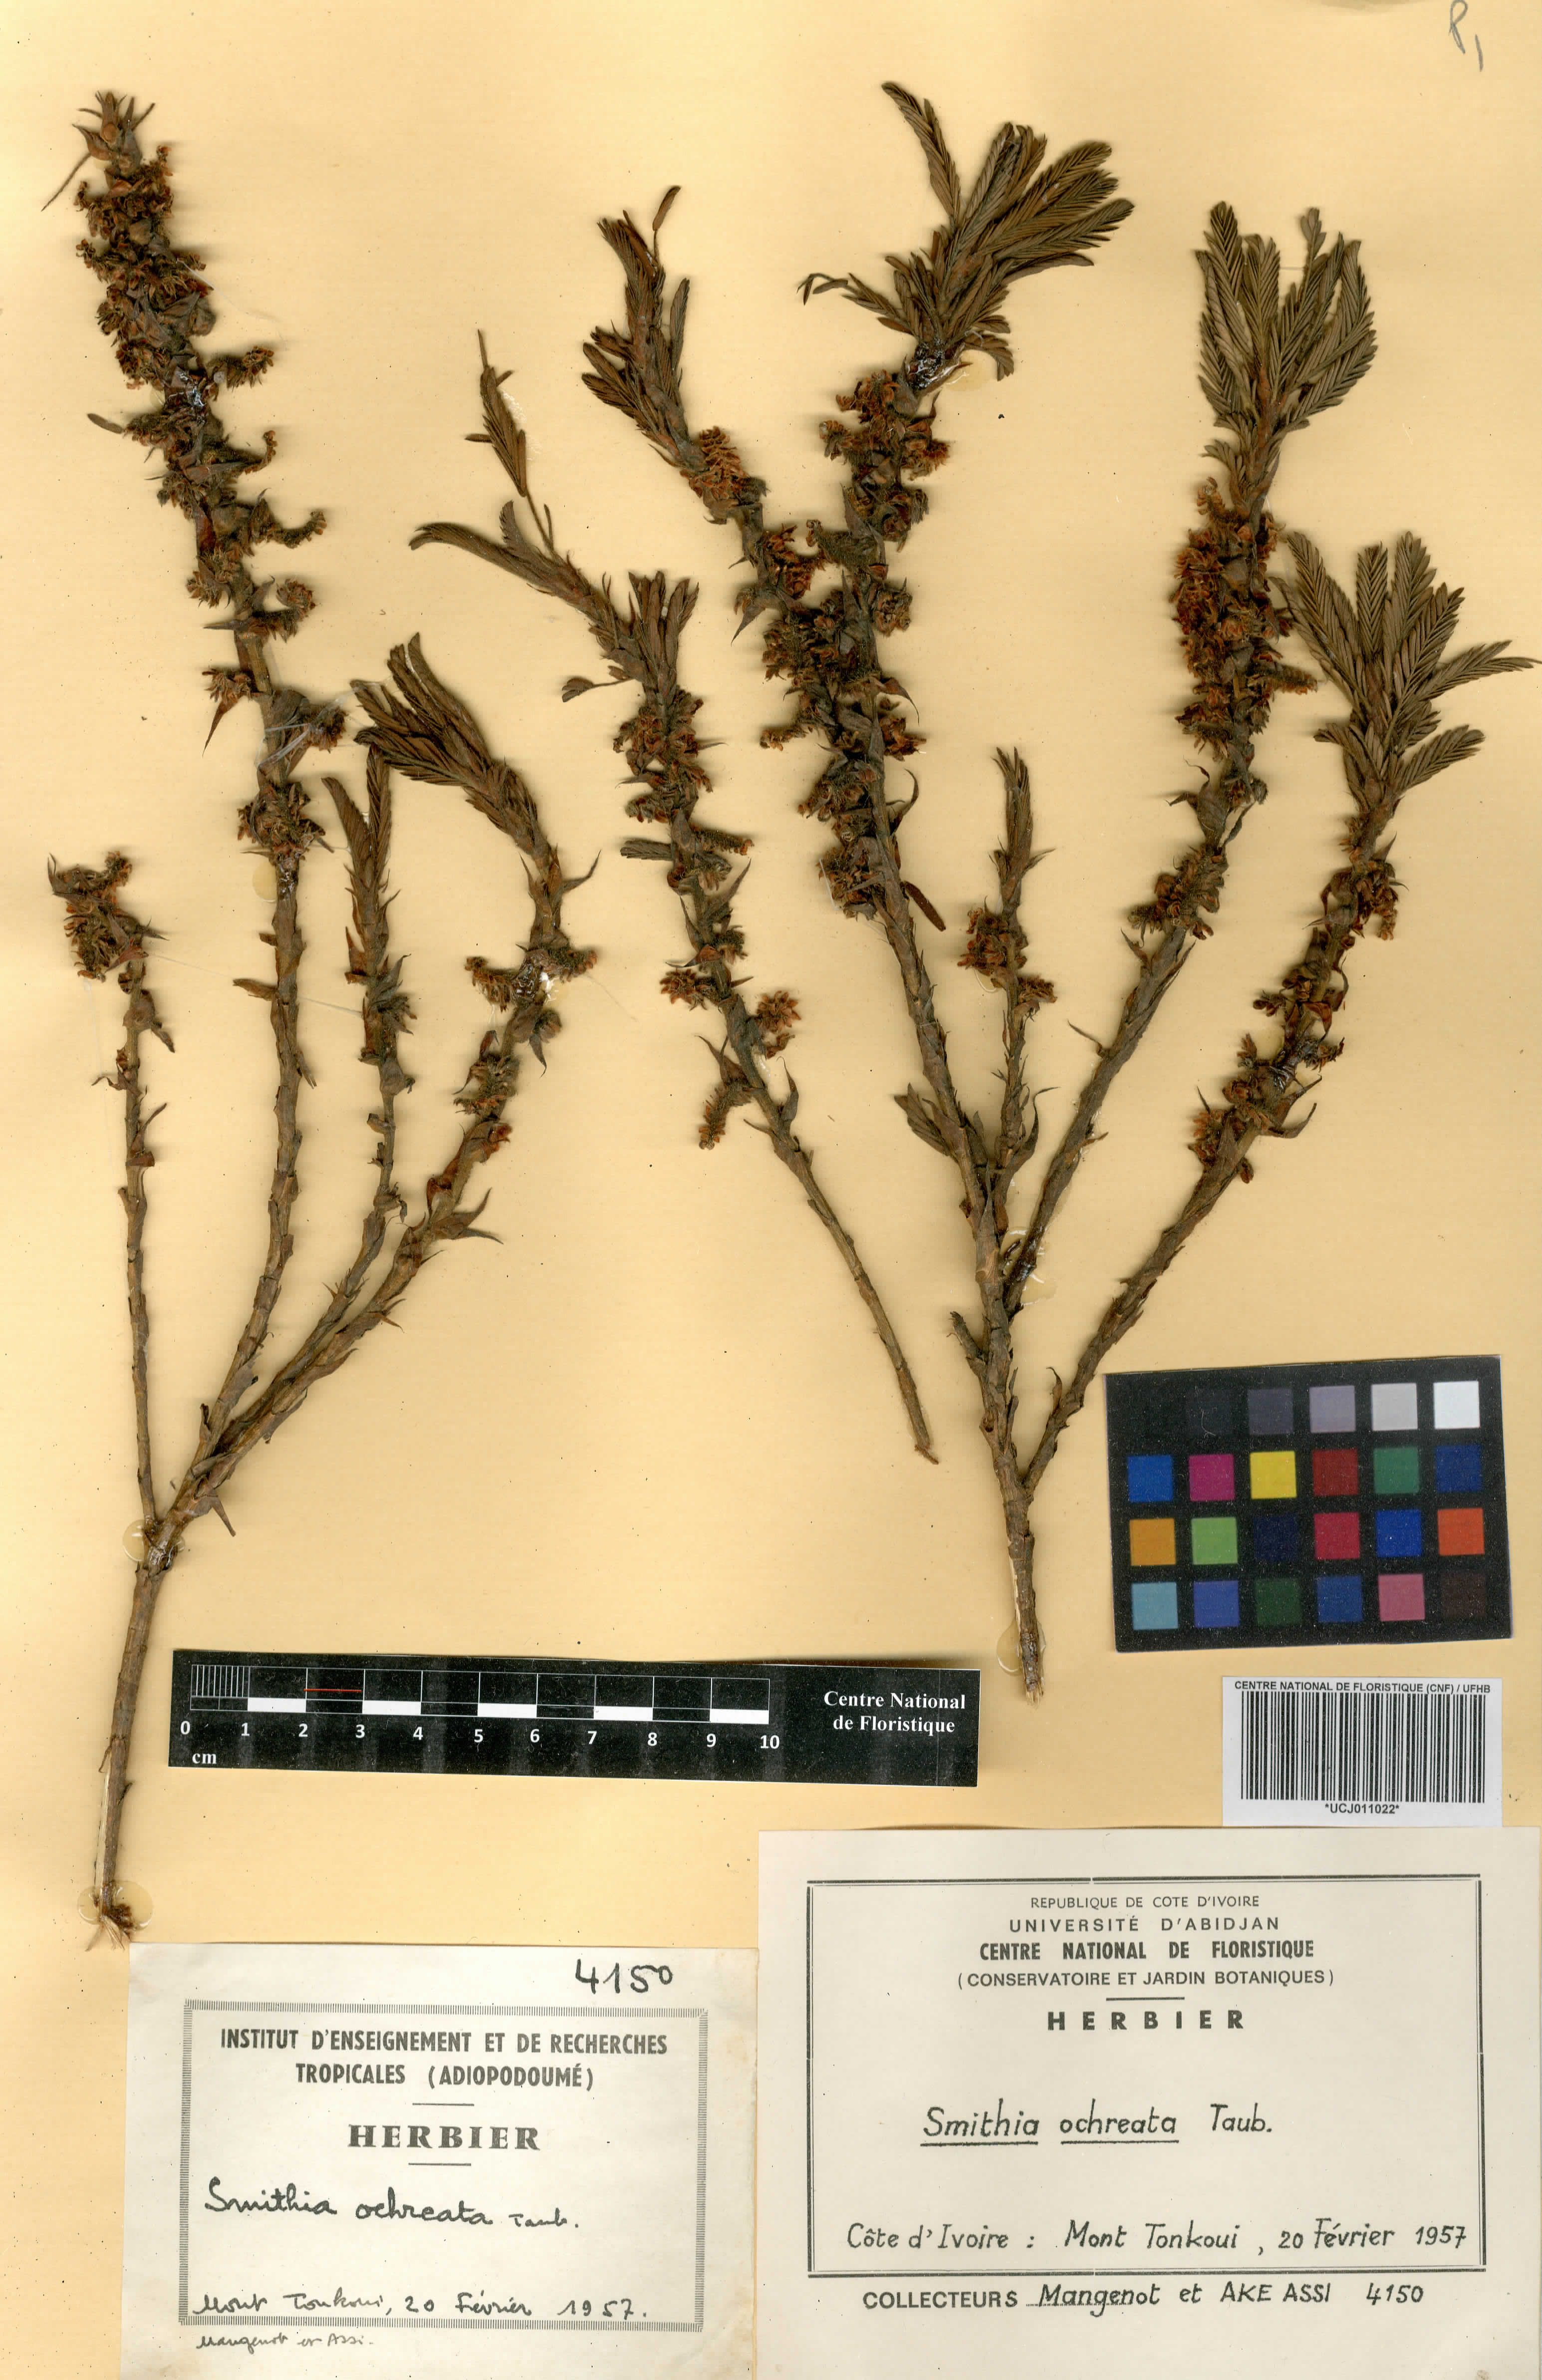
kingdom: Plantae
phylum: Tracheophyta
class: Magnoliopsida
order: Fabales
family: Fabaceae
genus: Kotschya
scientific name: Kotschya ochreata
